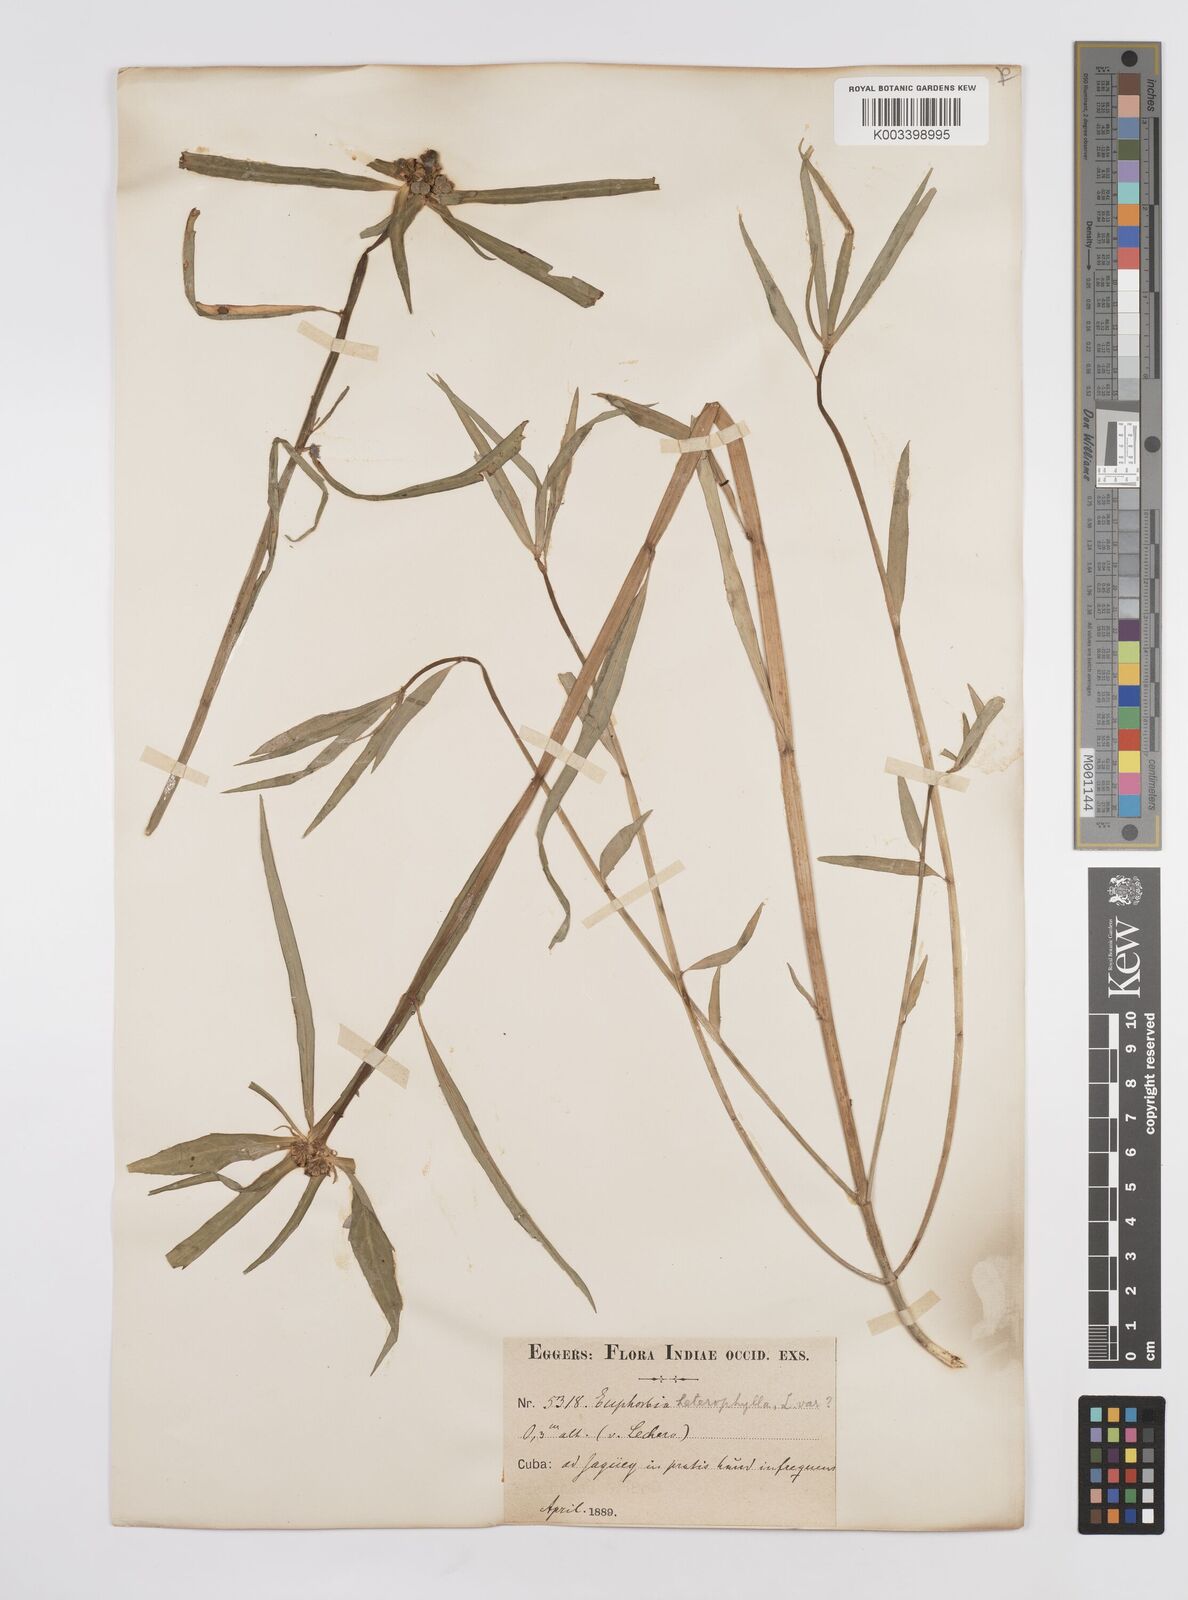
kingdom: Plantae
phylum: Tracheophyta
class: Magnoliopsida
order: Malpighiales
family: Euphorbiaceae
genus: Euphorbia
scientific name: Euphorbia heterophylla
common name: Mexican fireplant
